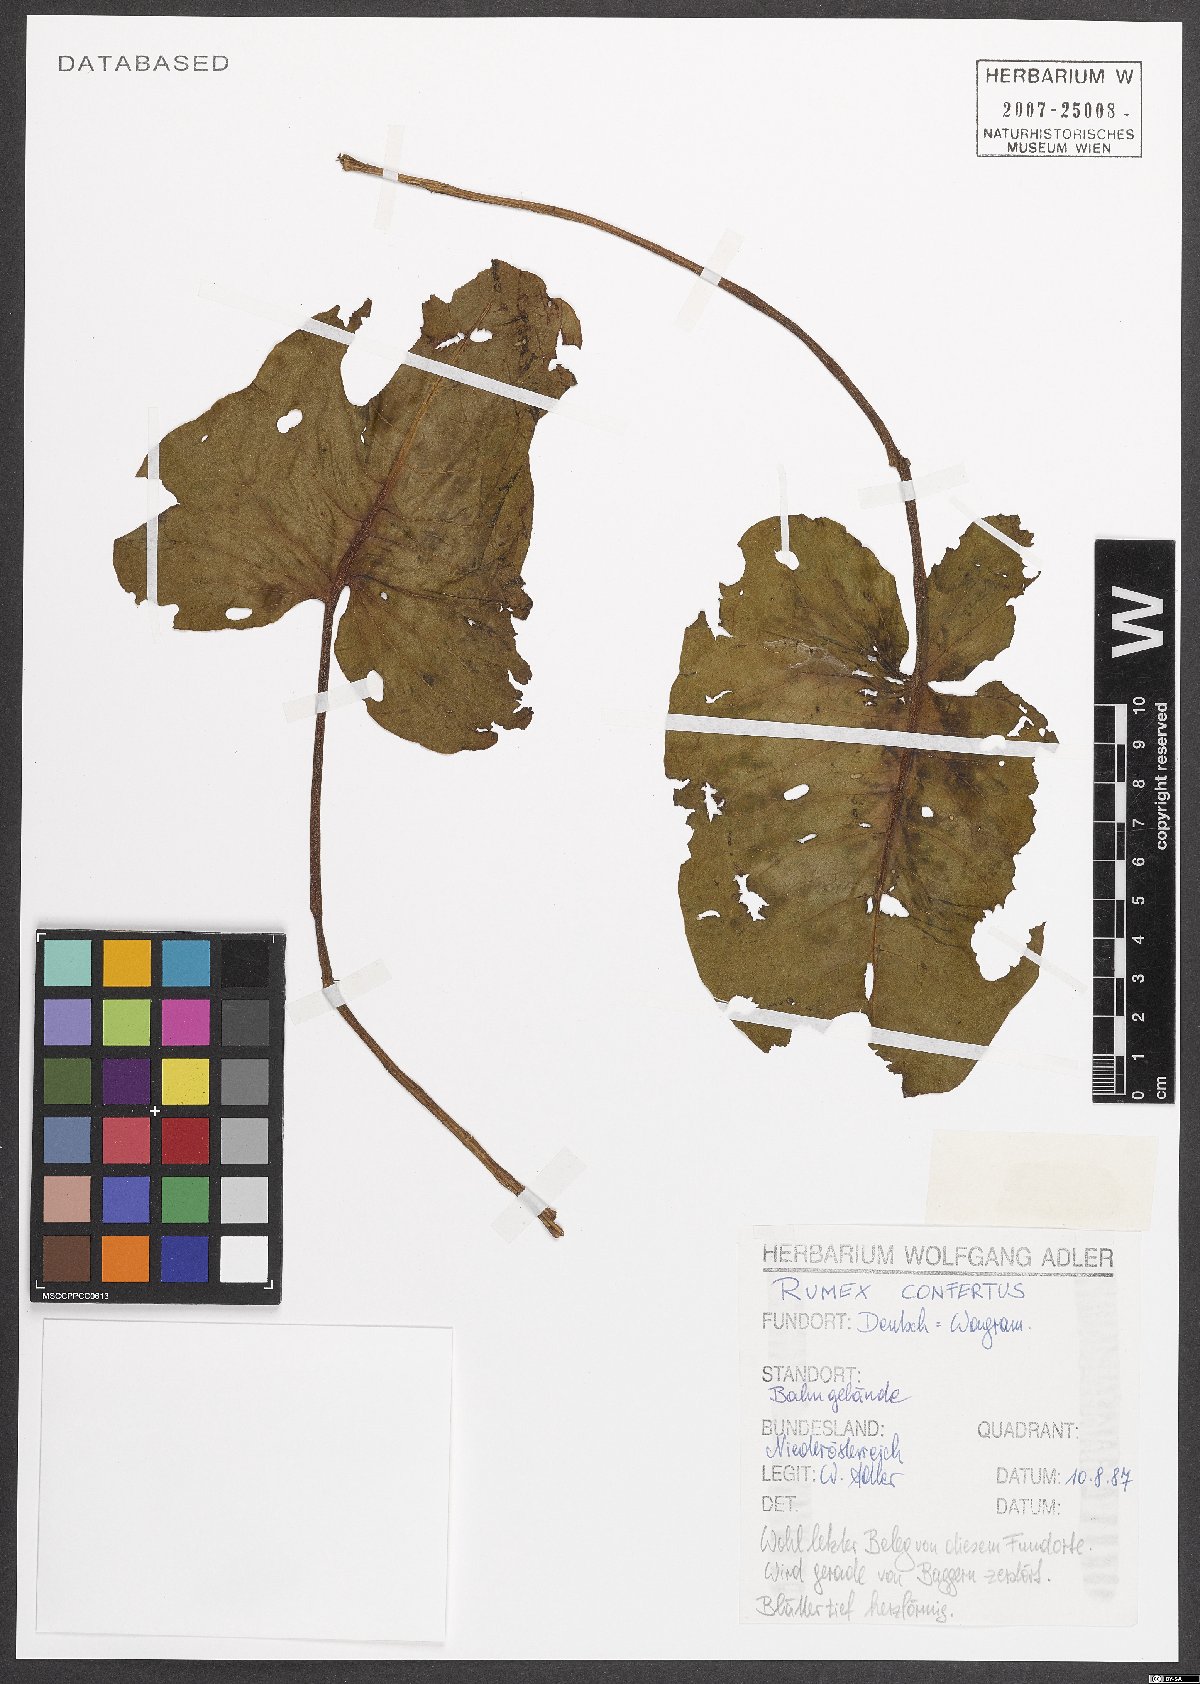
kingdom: Plantae
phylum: Tracheophyta
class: Magnoliopsida
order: Caryophyllales
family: Polygonaceae
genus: Rumex
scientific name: Rumex confertus
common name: Russian dock
